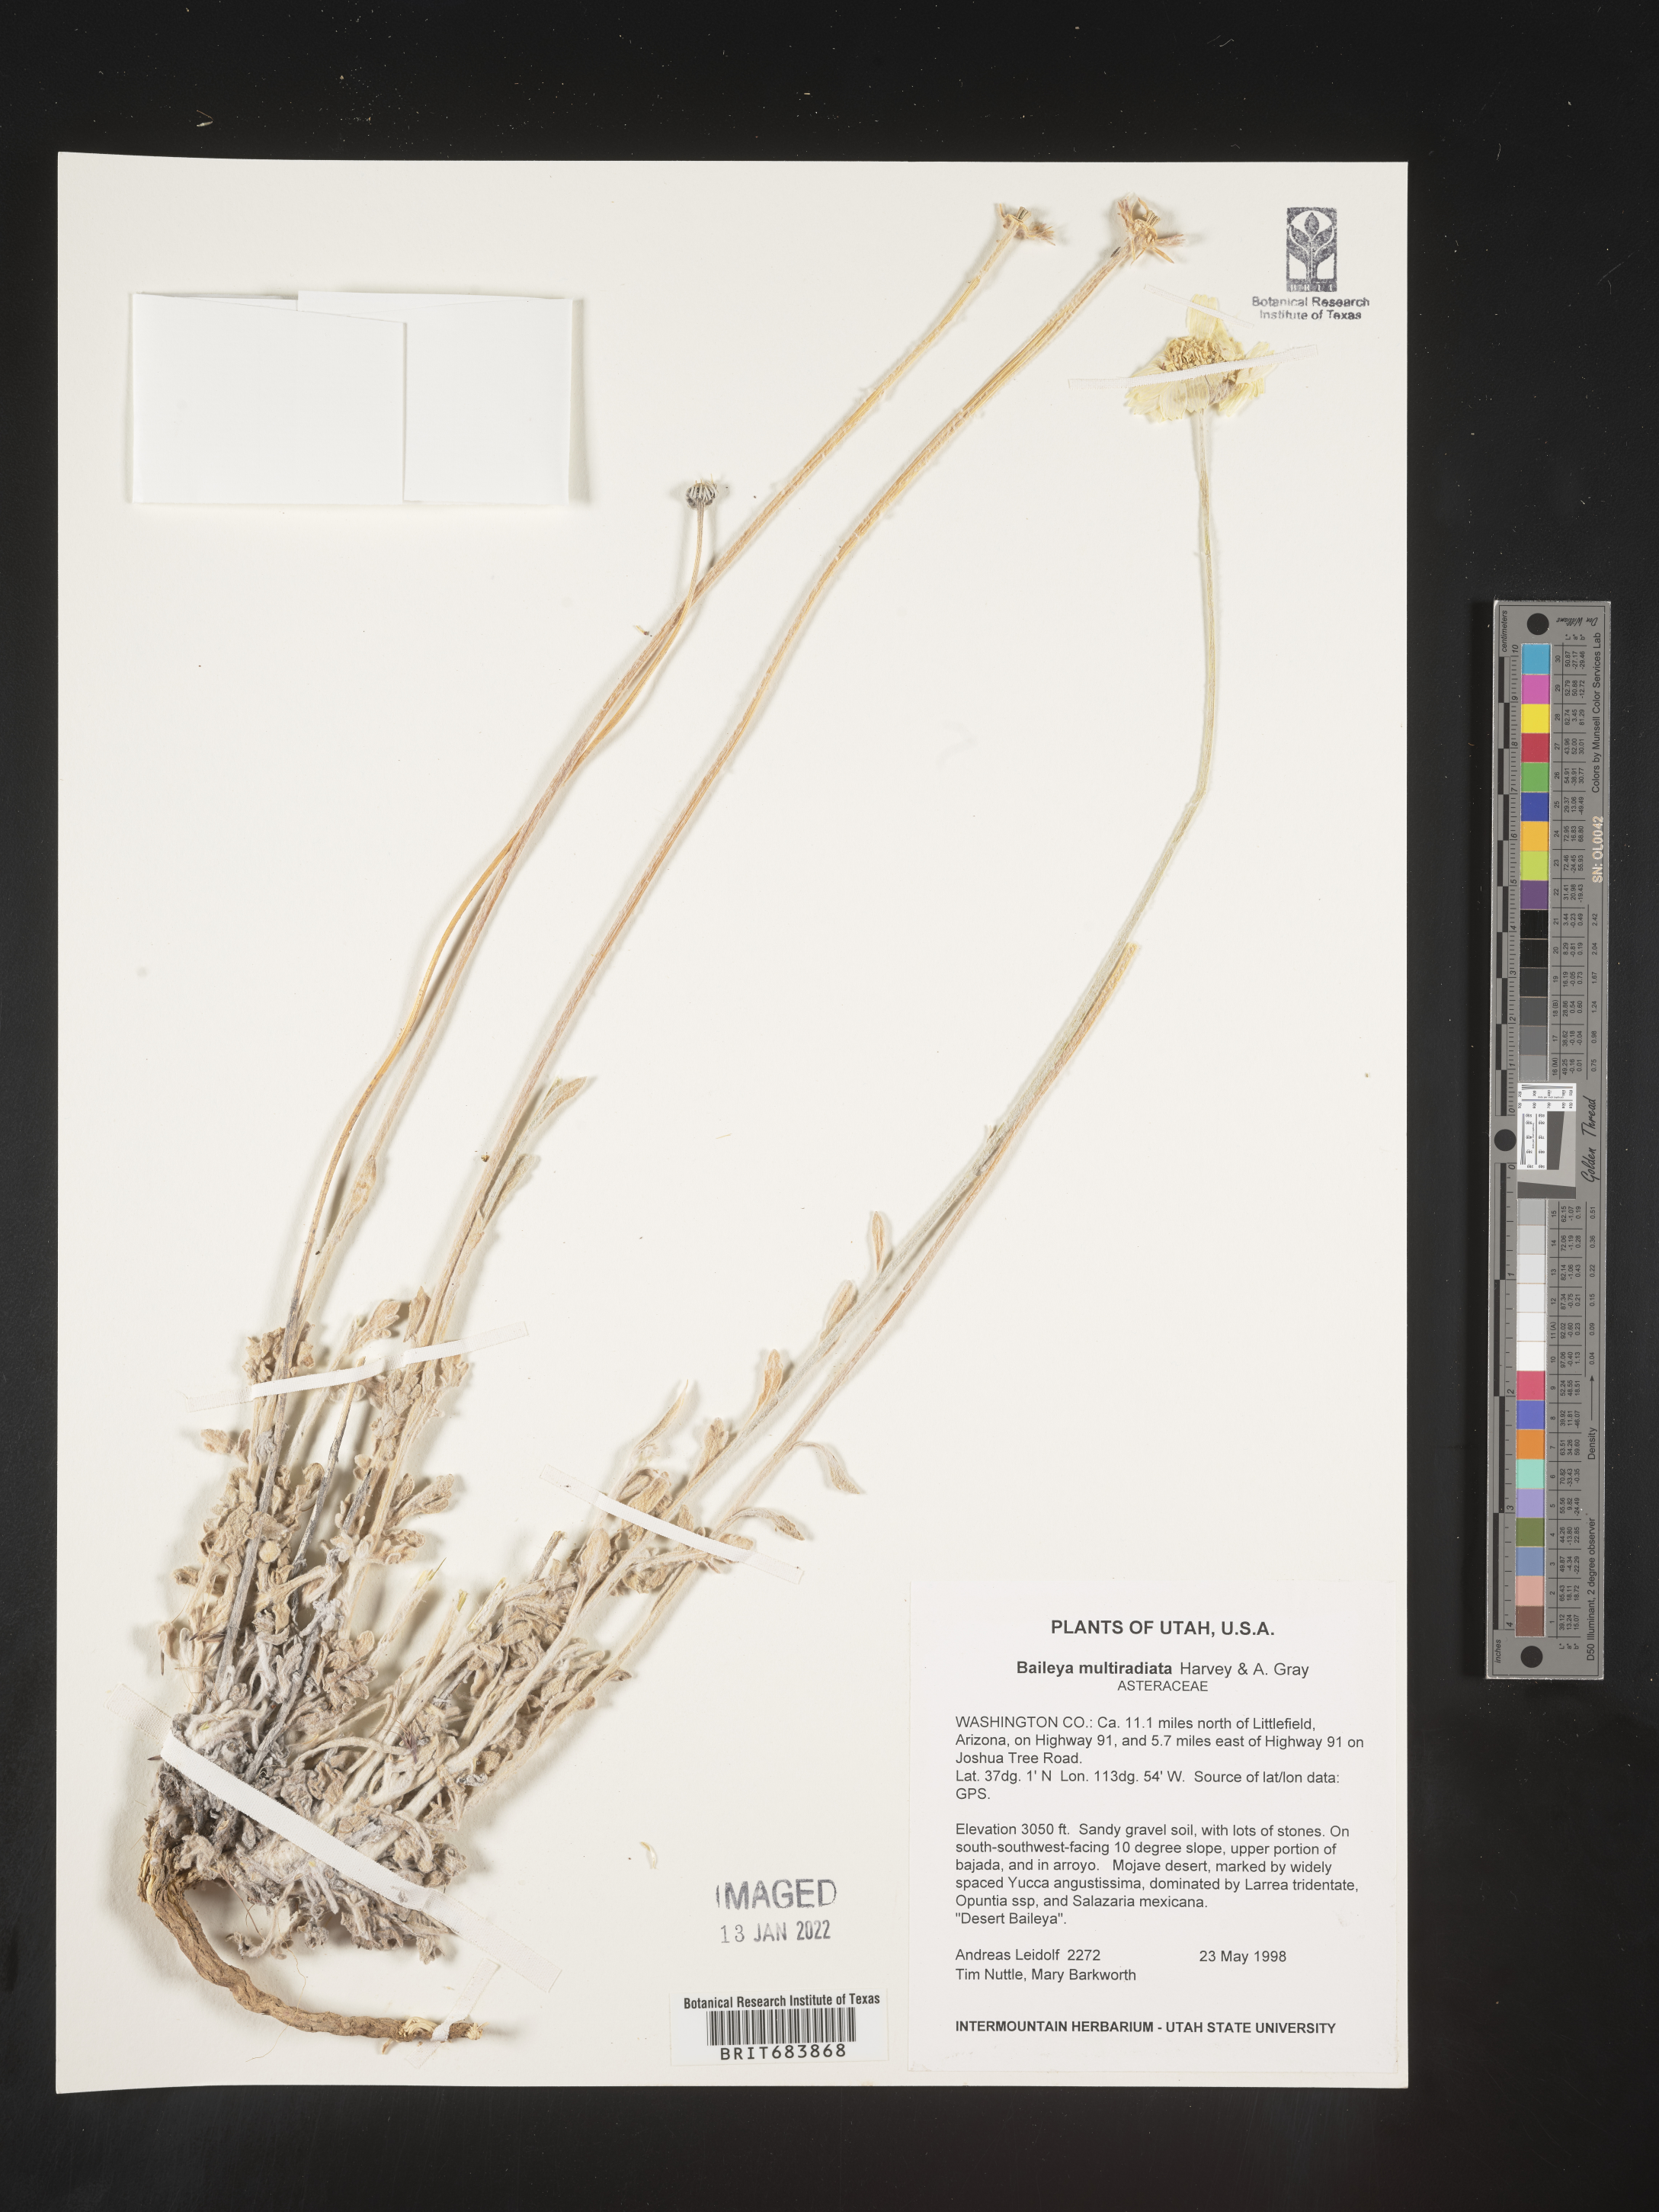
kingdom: Plantae
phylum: Tracheophyta
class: Magnoliopsida
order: Asterales
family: Asteraceae
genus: Baileya
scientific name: Baileya multiradiata
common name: Desert-marigold
